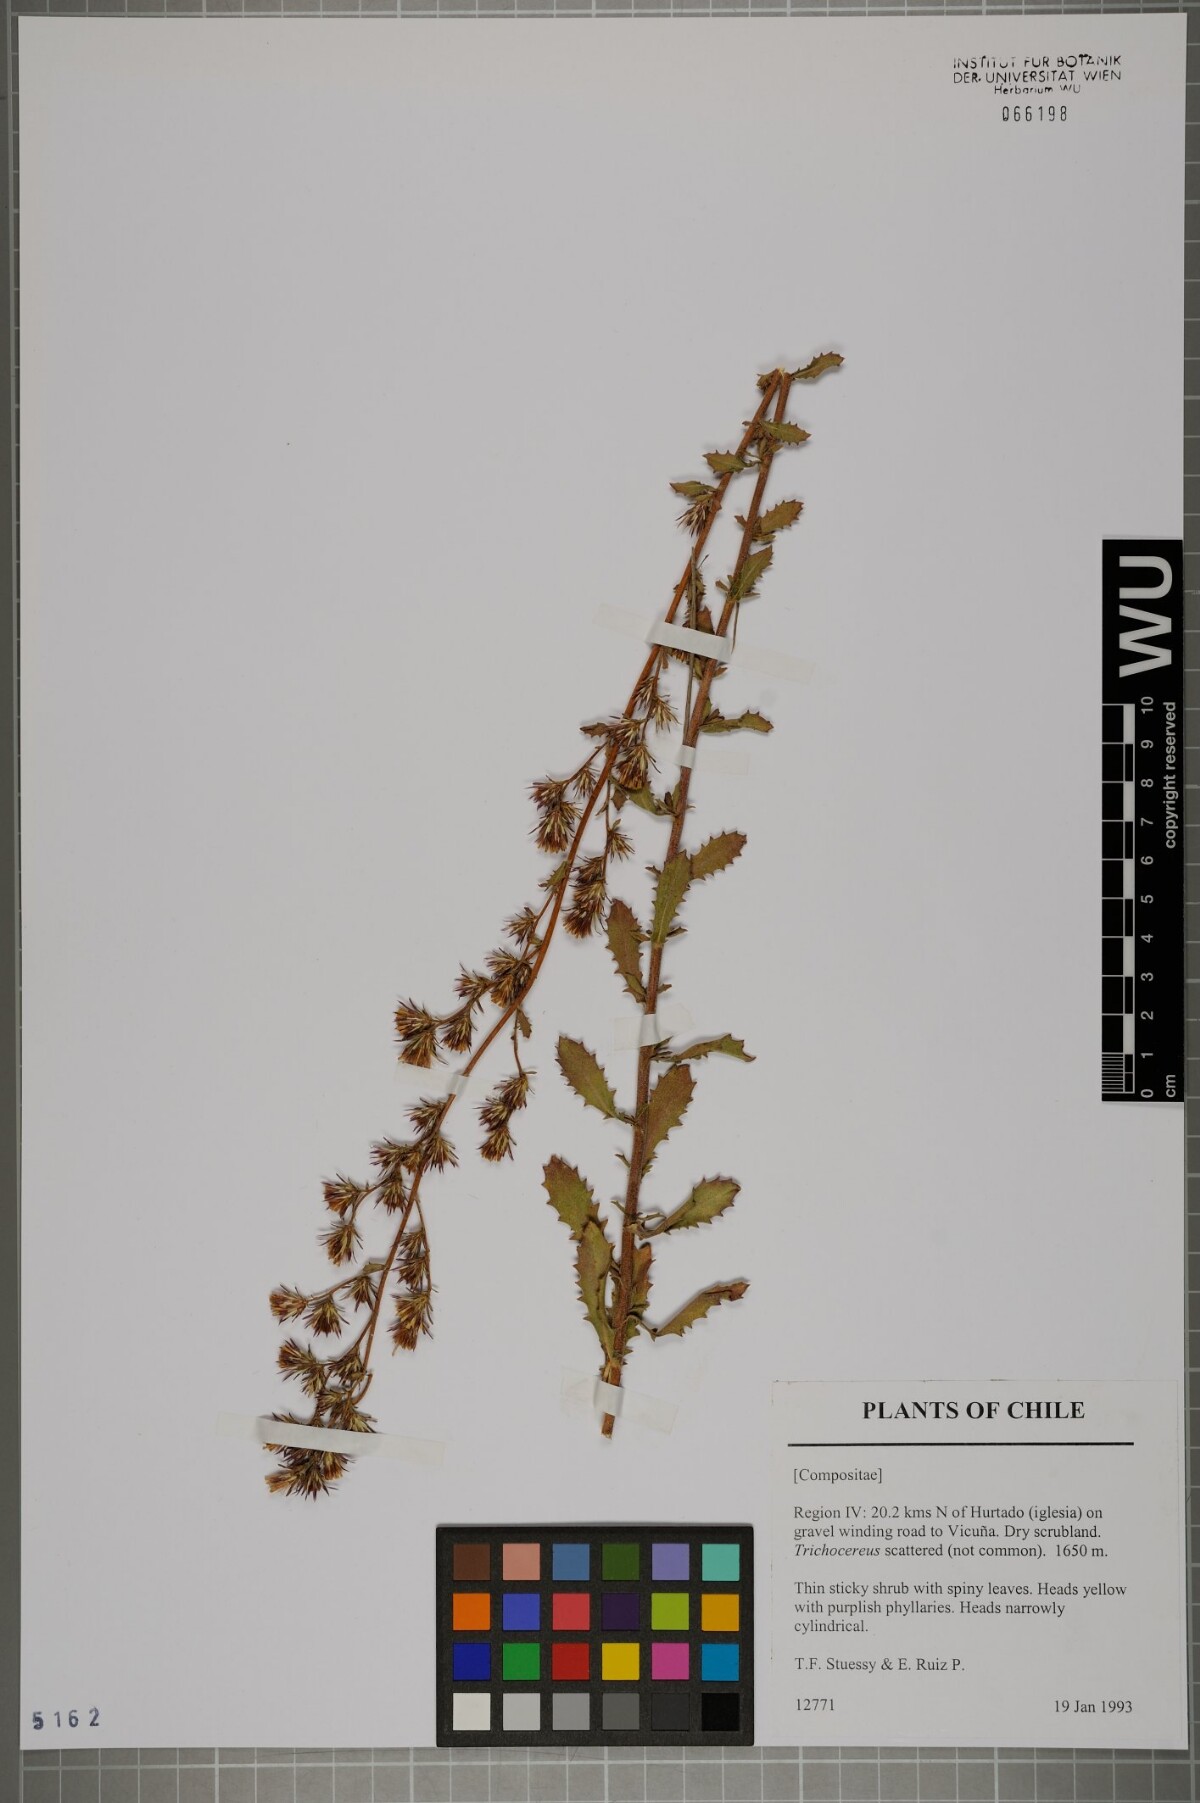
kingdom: Plantae
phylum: Tracheophyta
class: Magnoliopsida
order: Asterales
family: Asteraceae
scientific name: Asteraceae
